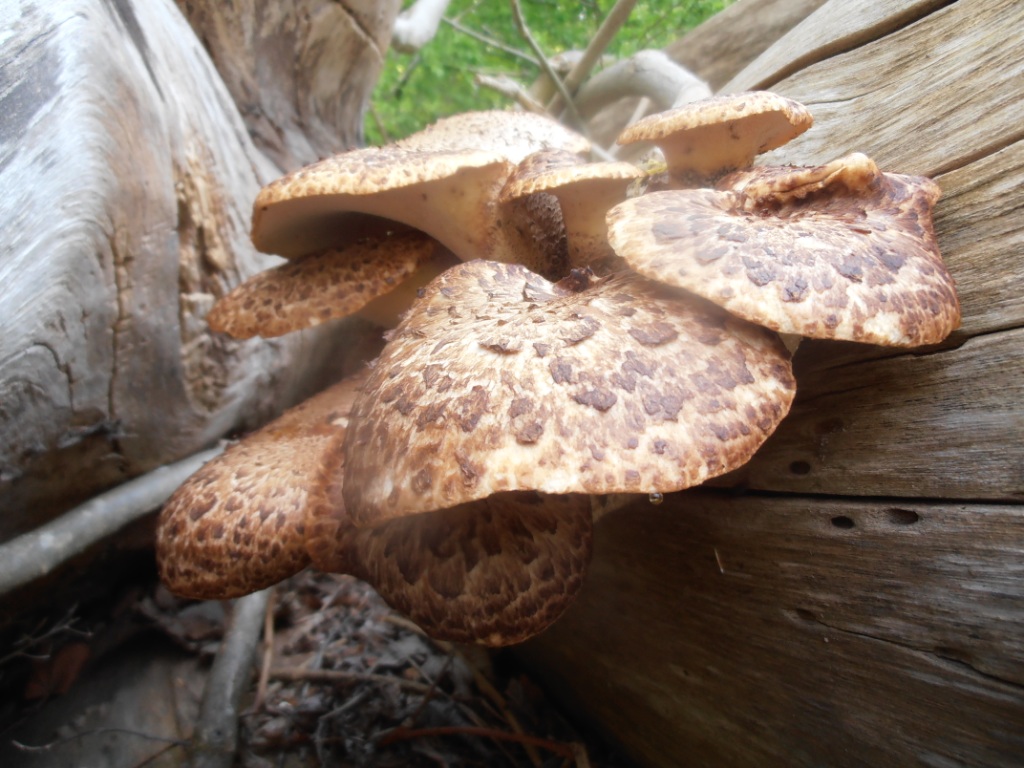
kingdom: Fungi
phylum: Basidiomycota
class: Agaricomycetes
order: Polyporales
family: Polyporaceae
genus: Cerioporus
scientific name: Cerioporus squamosus
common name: skællet stilkporesvamp
